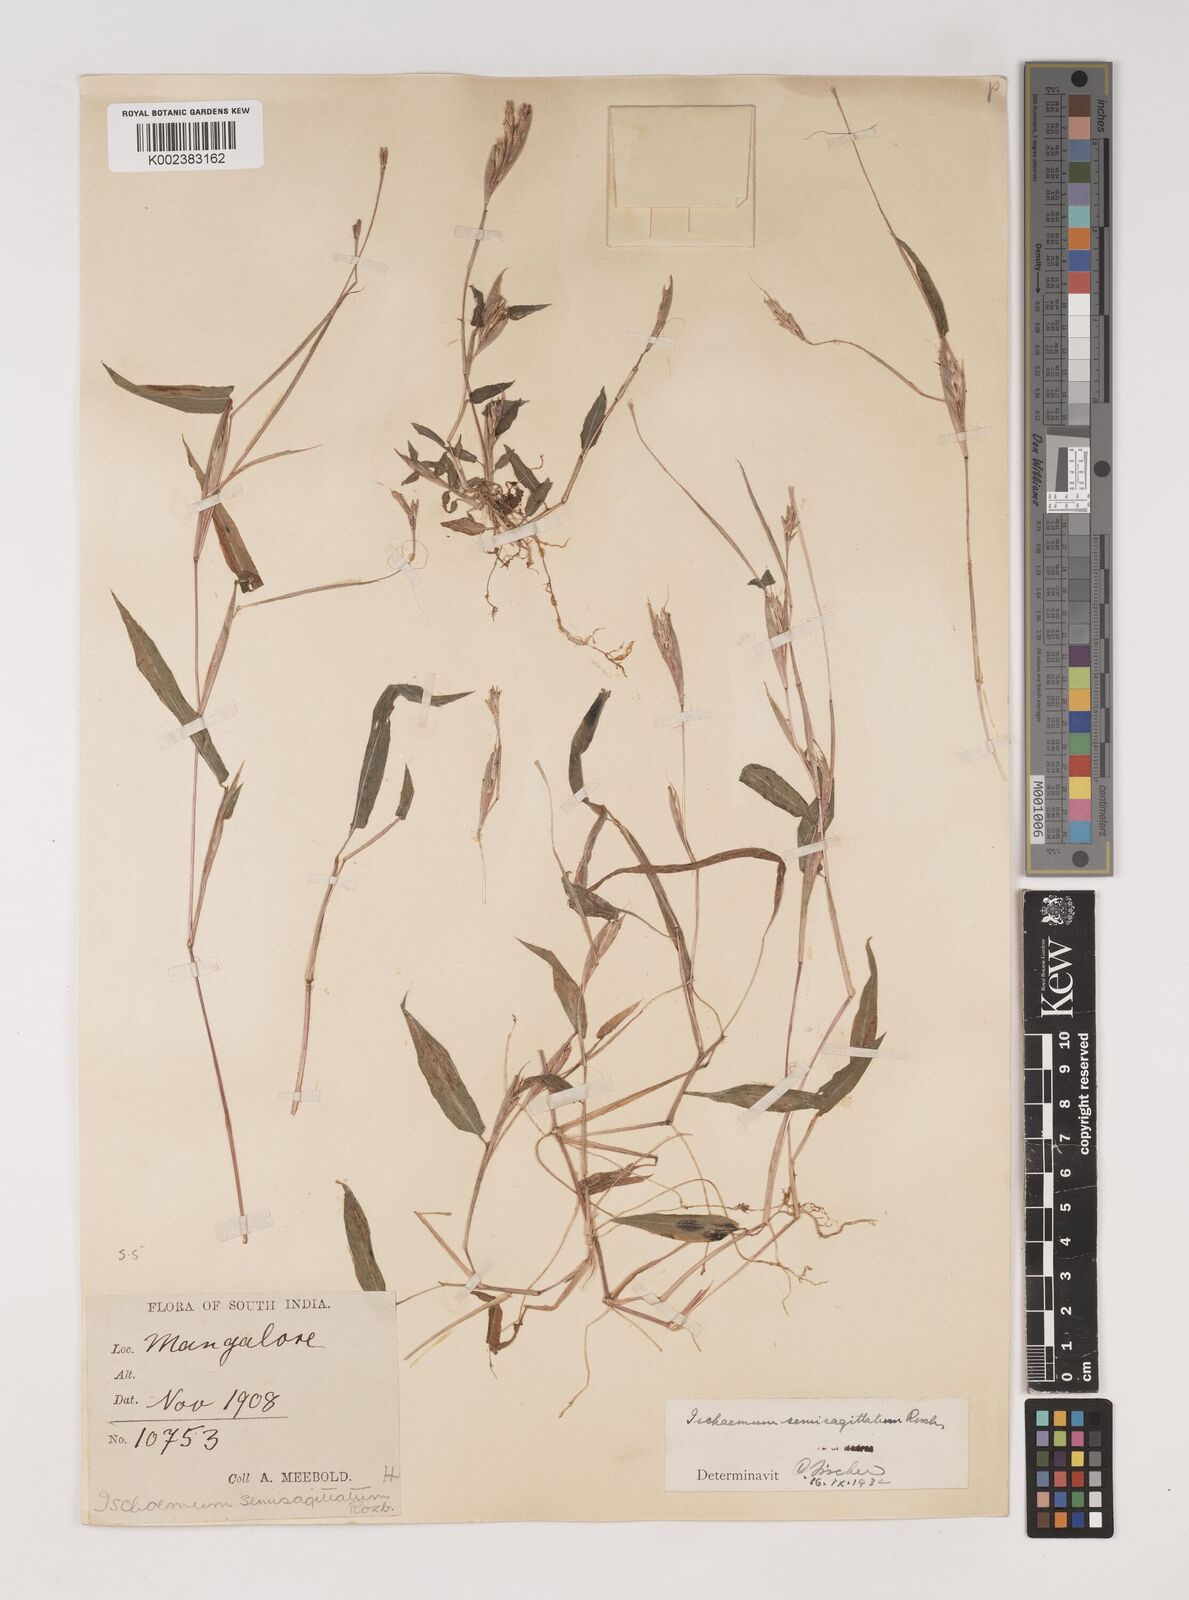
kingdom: Plantae
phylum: Tracheophyta
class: Liliopsida
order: Poales
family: Poaceae
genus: Ischaemum
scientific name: Ischaemum semisagittatum
